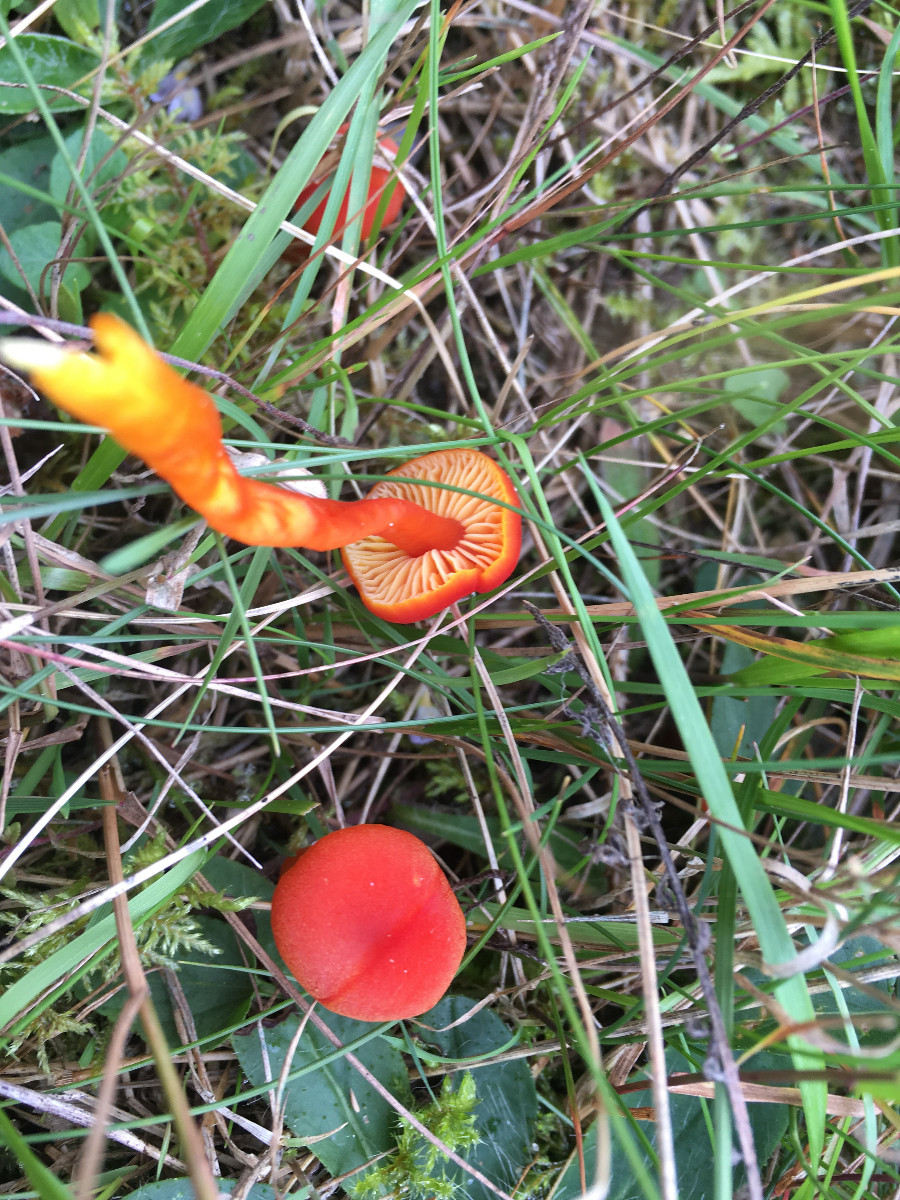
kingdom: Fungi
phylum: Basidiomycota
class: Agaricomycetes
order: Agaricales
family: Hygrophoraceae
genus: Hygrocybe
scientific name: Hygrocybe
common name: vokshat
